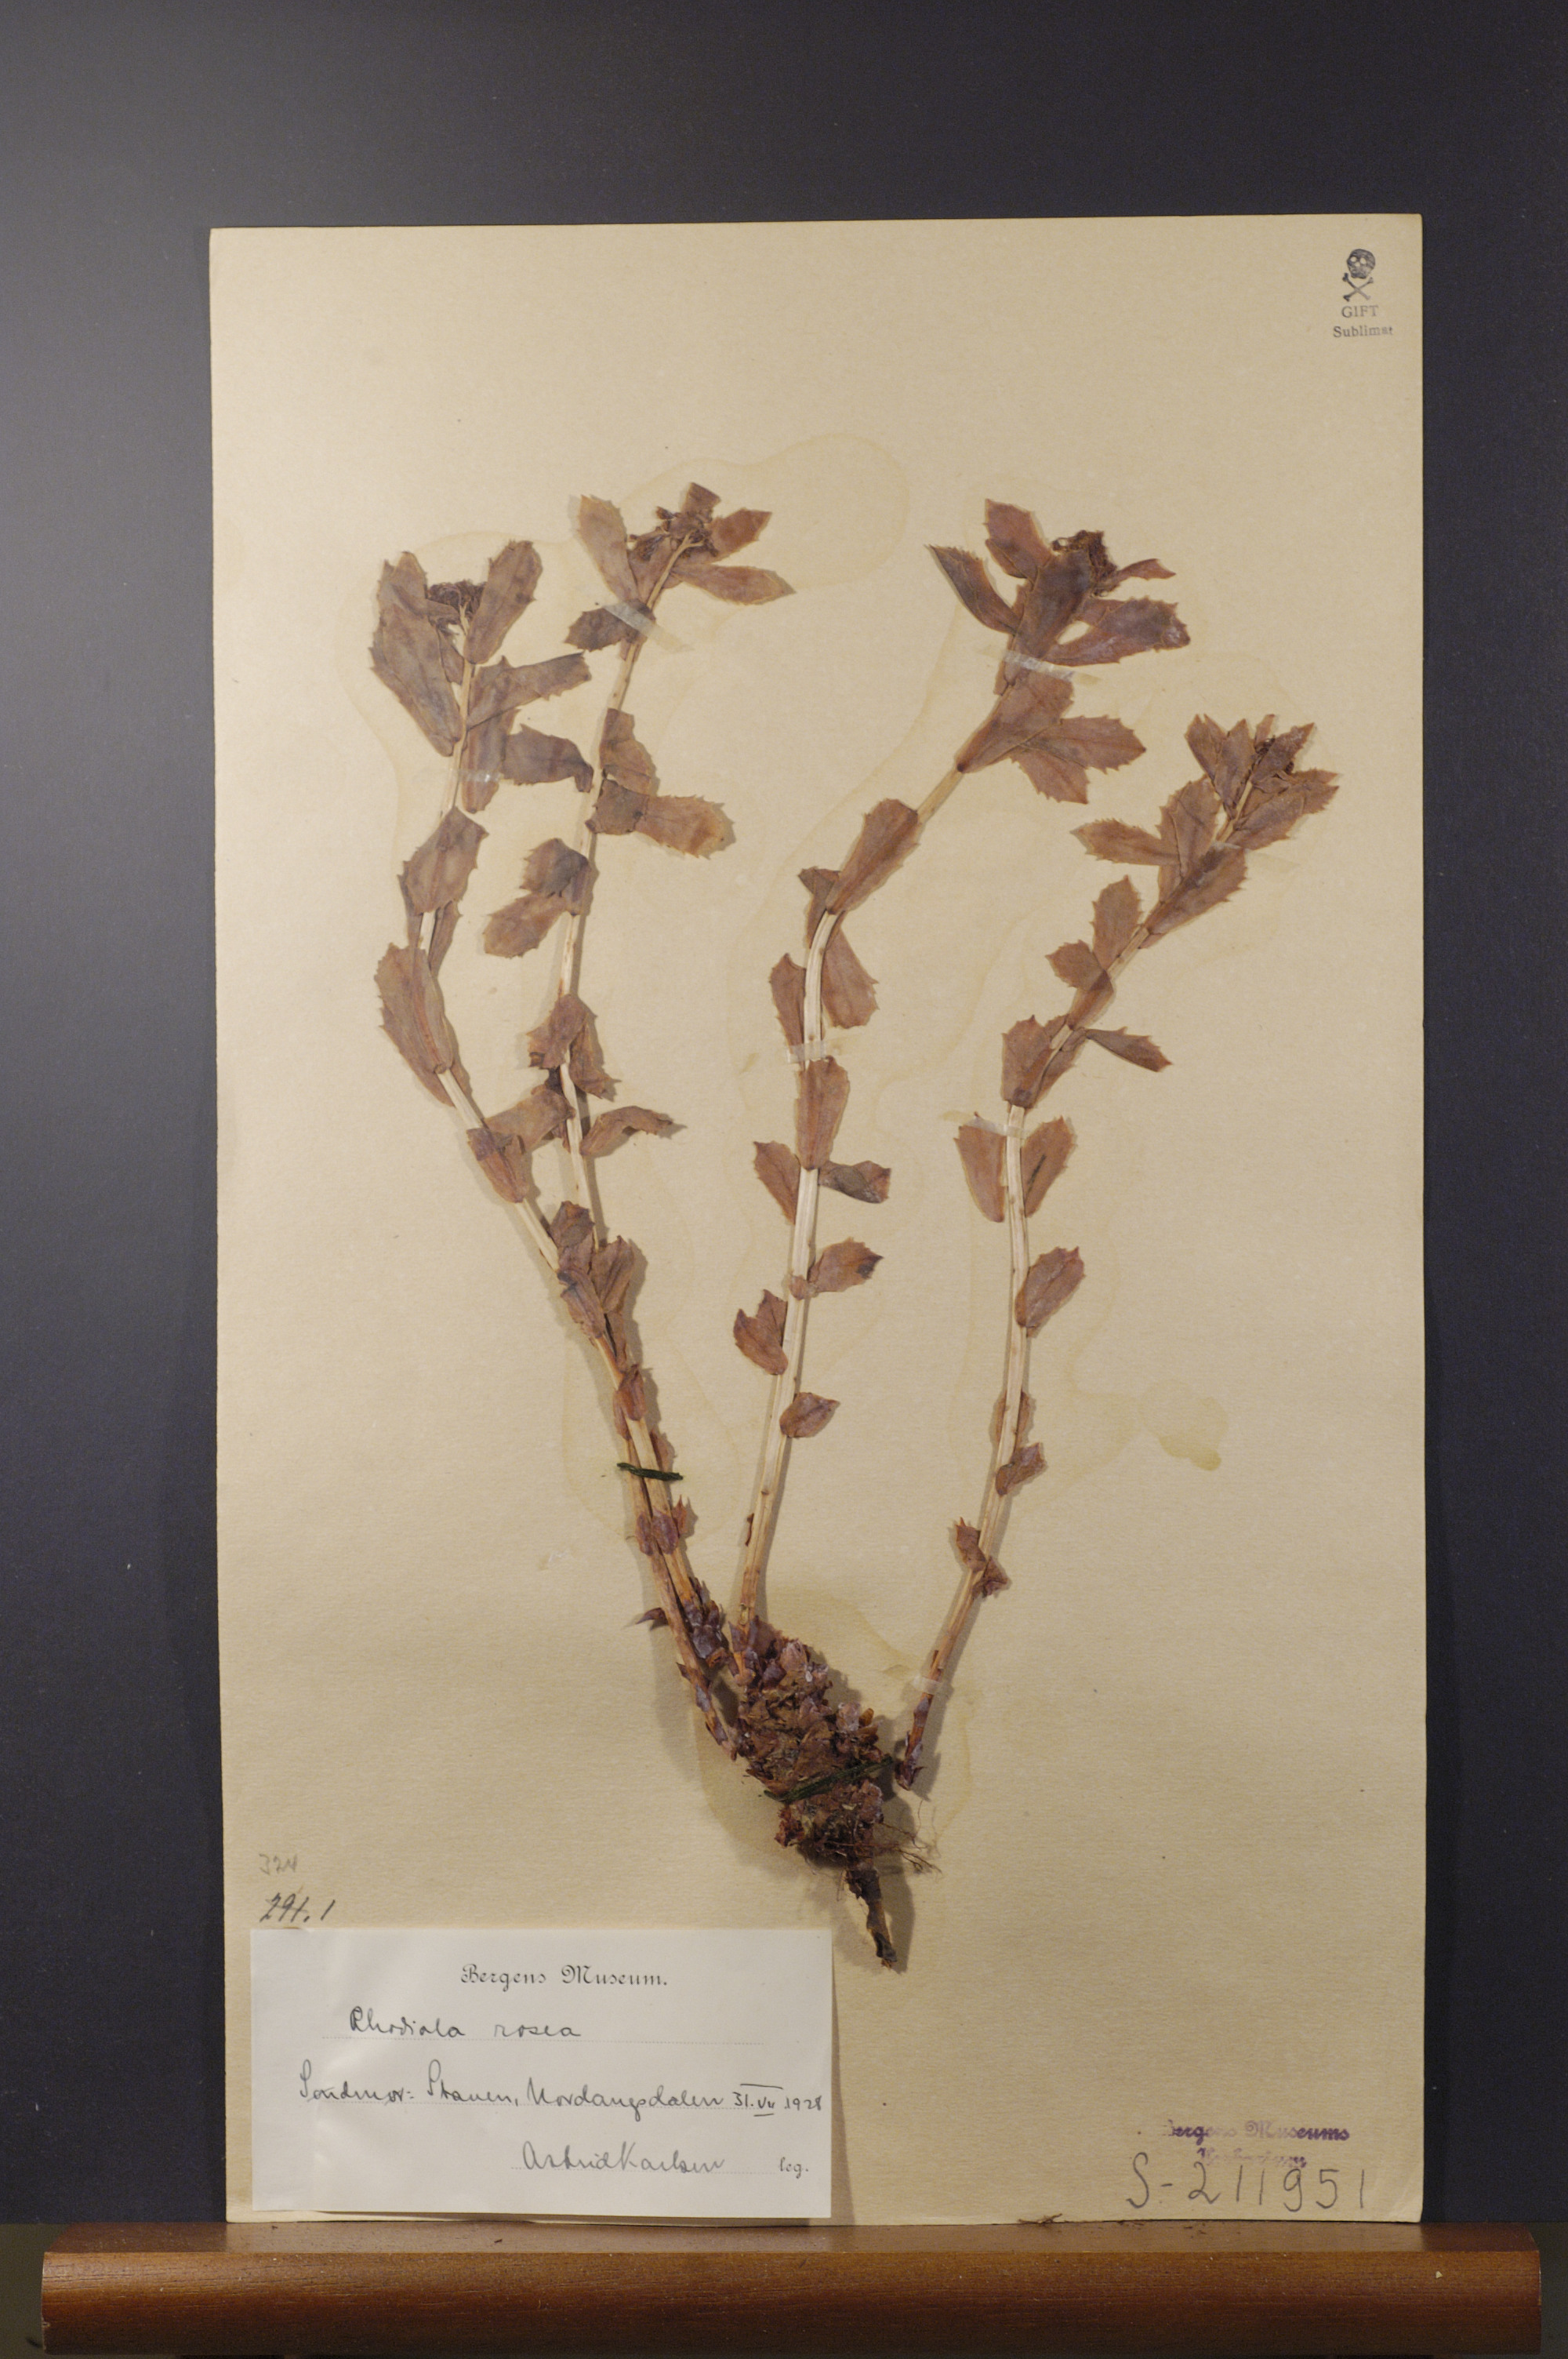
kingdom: Plantae
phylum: Tracheophyta
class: Magnoliopsida
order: Saxifragales
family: Crassulaceae
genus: Rhodiola
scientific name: Rhodiola rosea
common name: Roseroot
